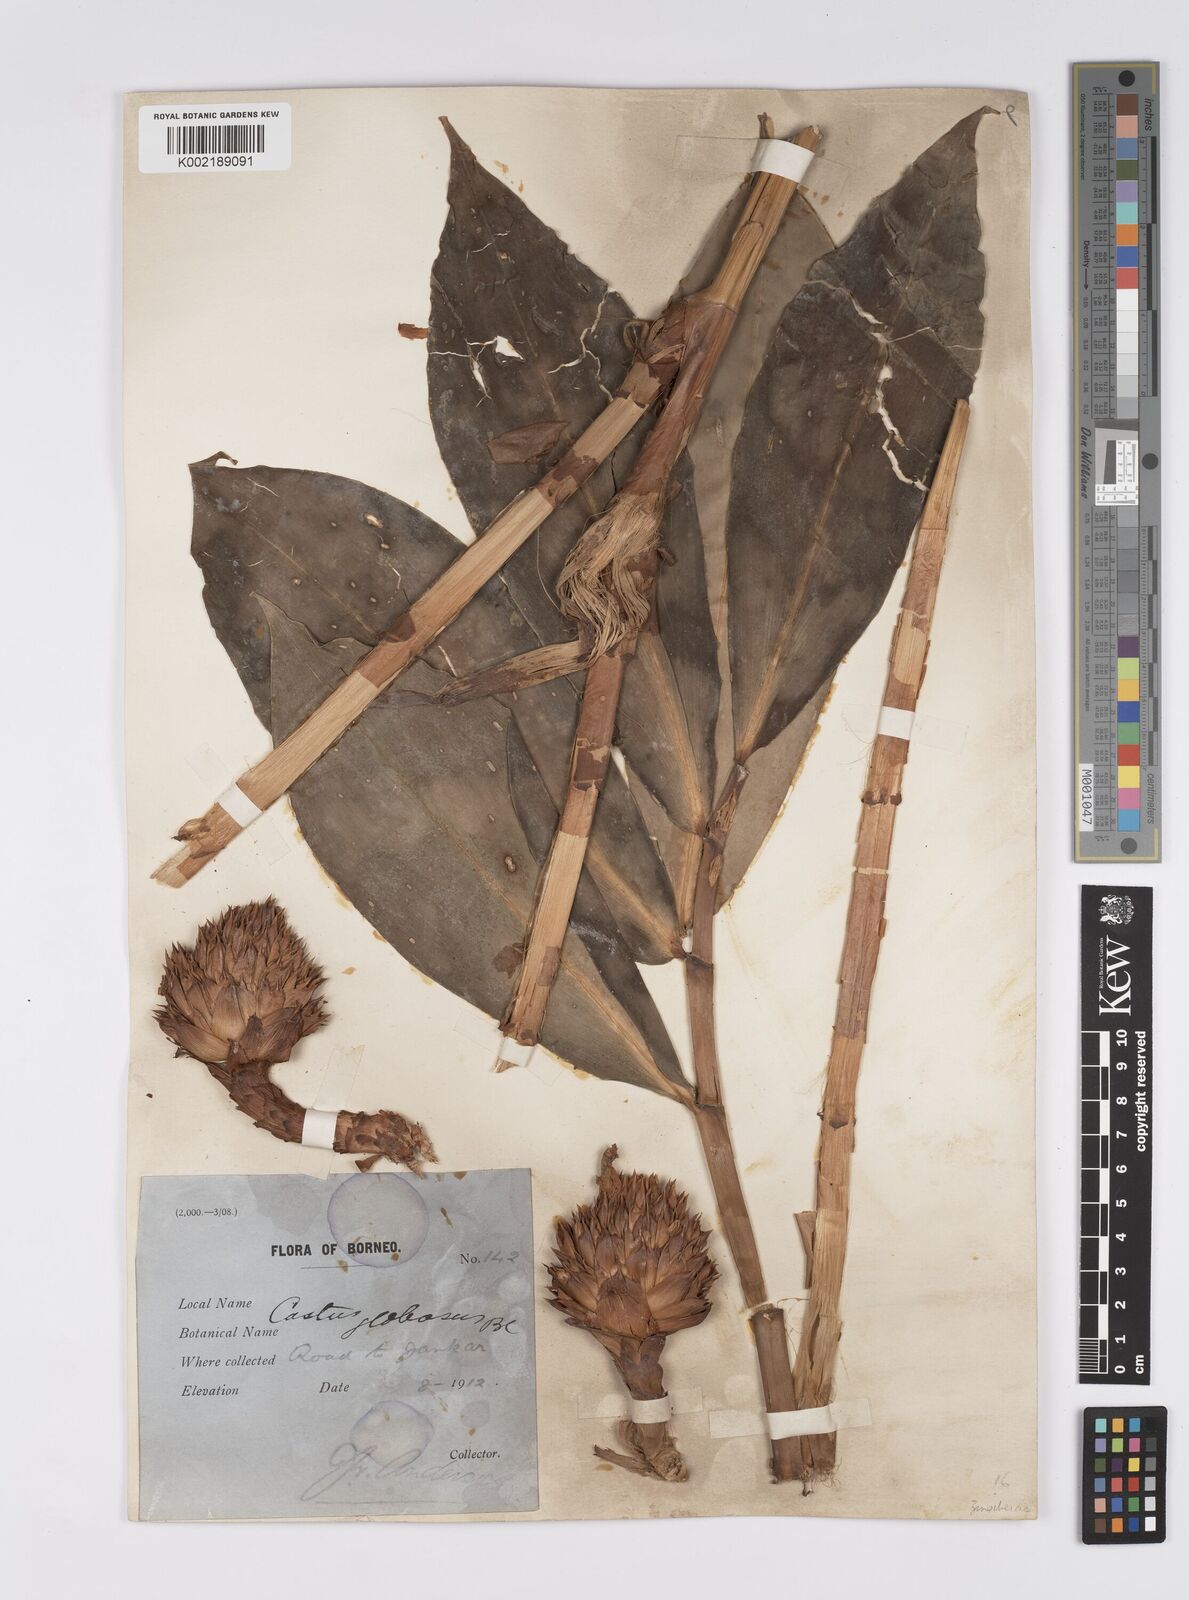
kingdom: Plantae
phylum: Tracheophyta
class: Liliopsida
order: Zingiberales
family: Costaceae
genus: Hellenia
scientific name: Hellenia globosa
